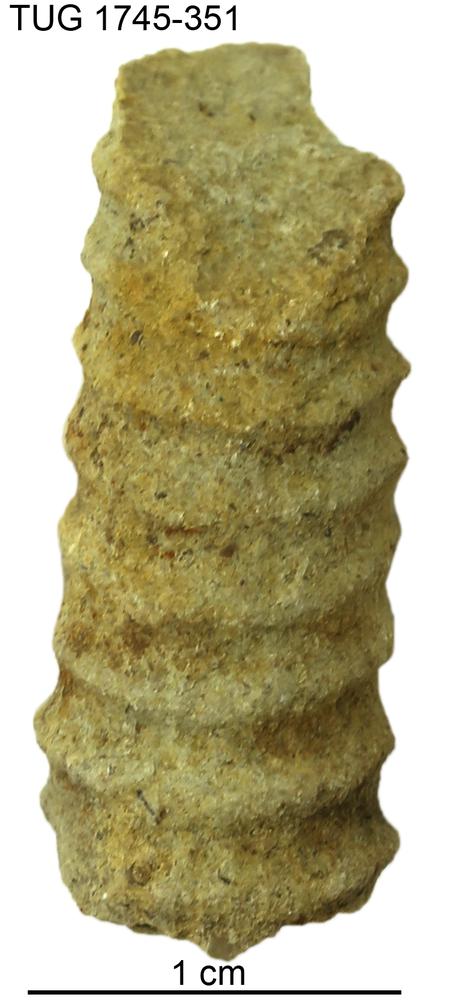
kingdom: Animalia
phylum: Mollusca
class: Cephalopoda
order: Orthocerida
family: Orthoceratidae
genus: Ctenoceras
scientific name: Ctenoceras
